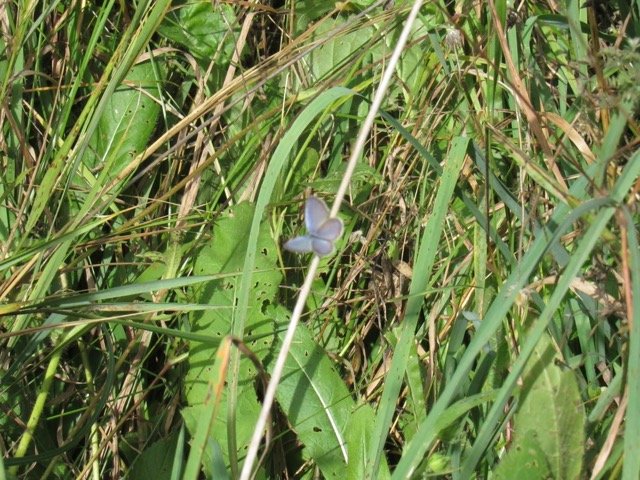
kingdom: Animalia
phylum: Arthropoda
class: Insecta
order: Lepidoptera
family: Lycaenidae
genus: Elkalyce
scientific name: Elkalyce comyntas
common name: Eastern Tailed-Blue
